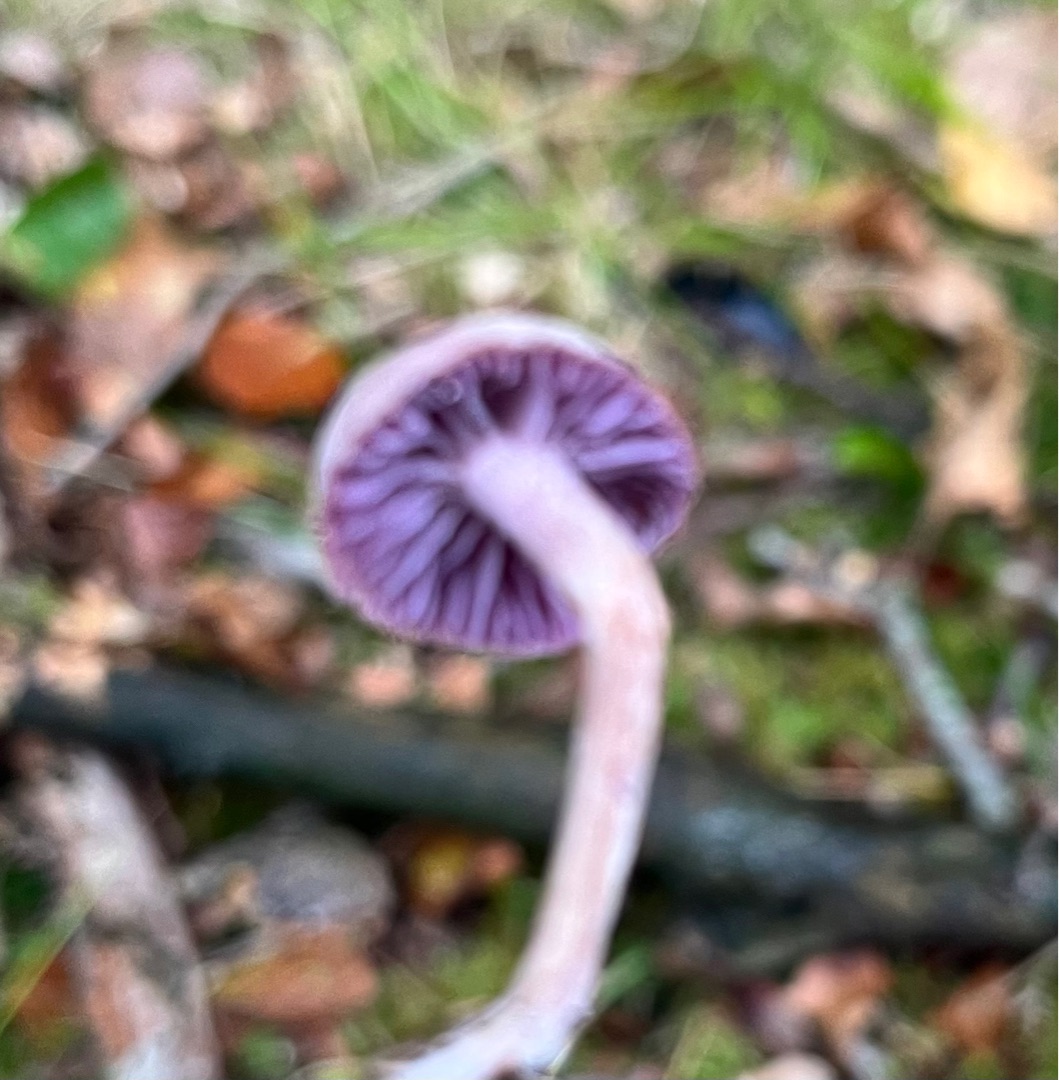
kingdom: Fungi
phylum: Basidiomycota
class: Agaricomycetes
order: Agaricales
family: Hydnangiaceae
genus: Laccaria
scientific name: Laccaria amethystina
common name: Violet ametysthat
